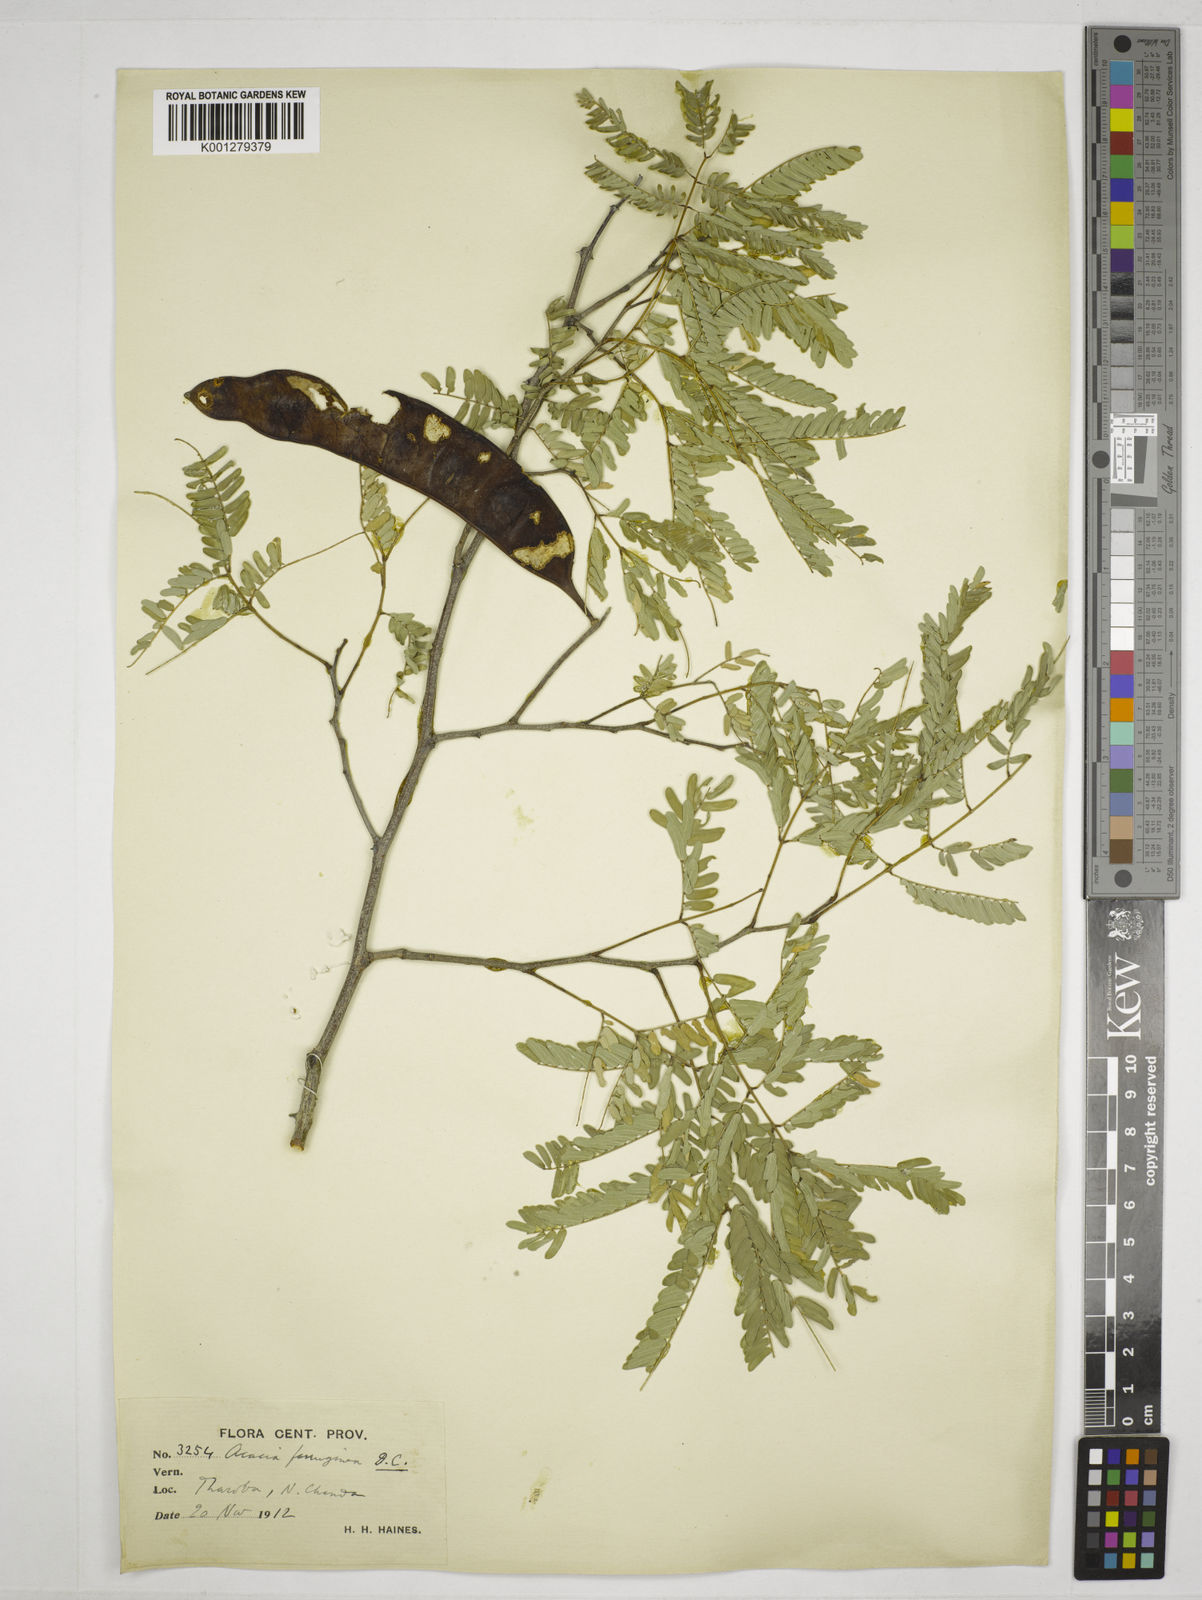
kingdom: Plantae
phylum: Tracheophyta
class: Magnoliopsida
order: Fabales
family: Fabaceae
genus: Senegalia
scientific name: Senegalia ferruginea
